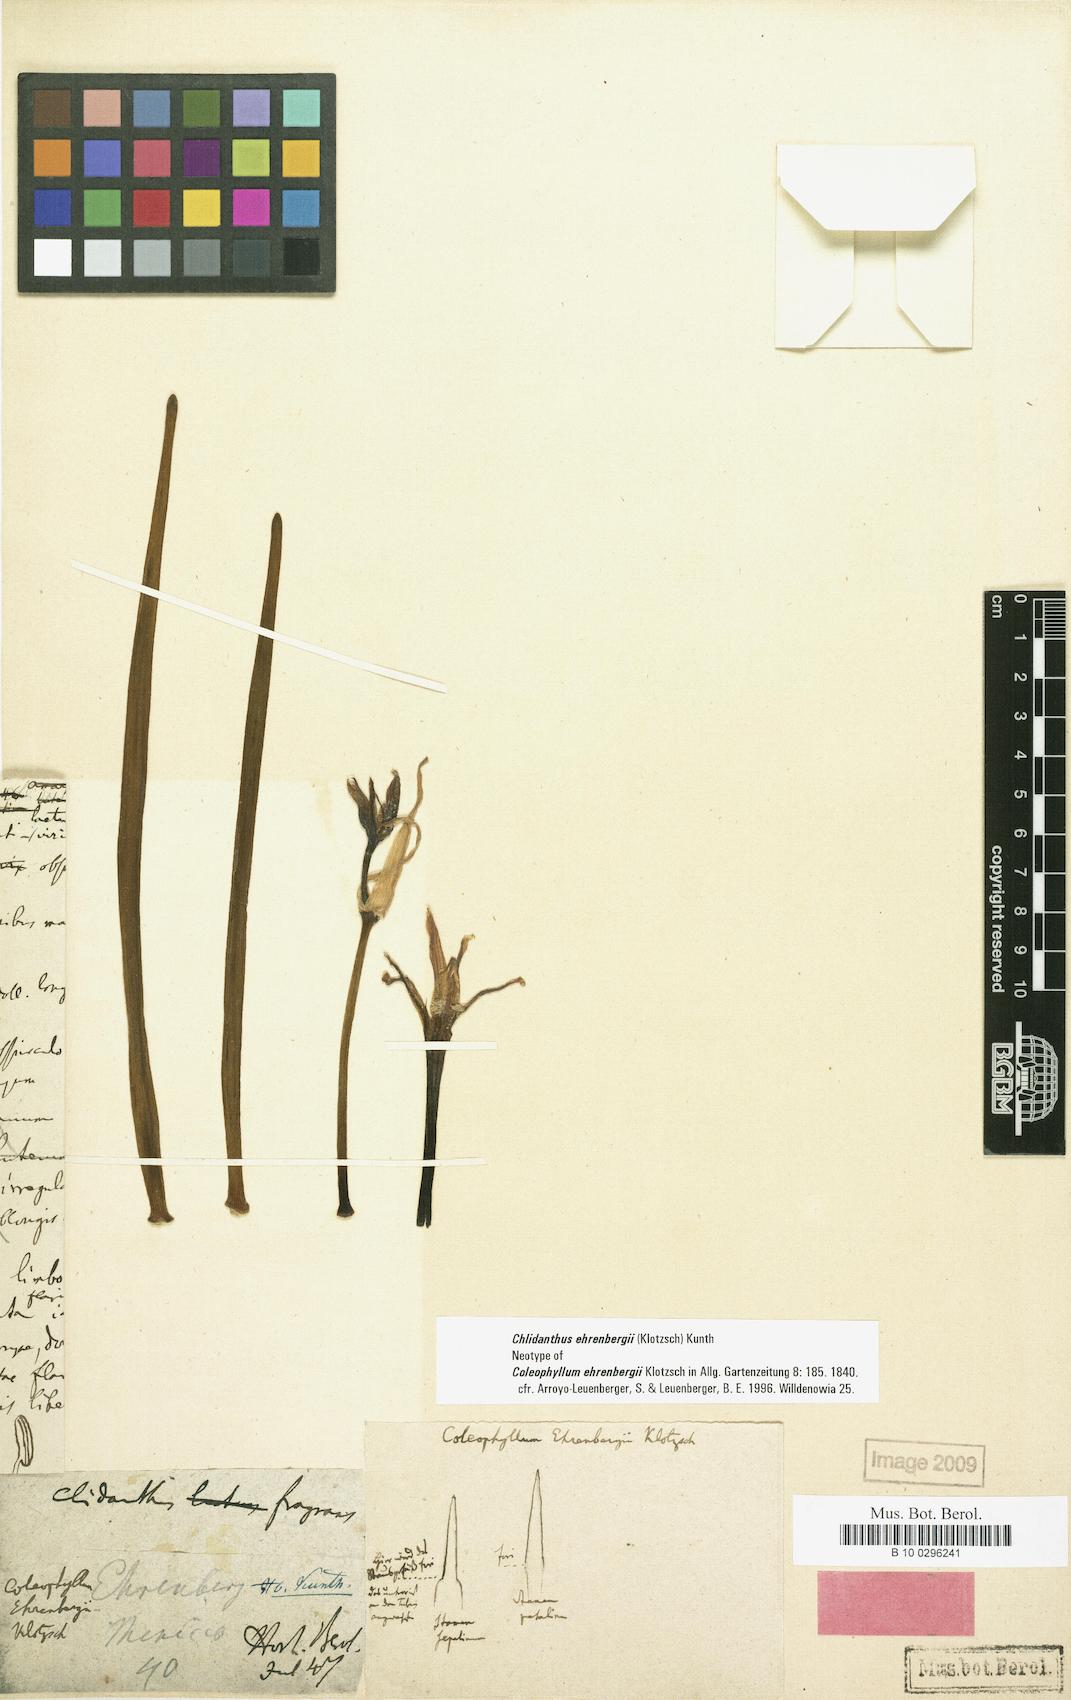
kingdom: Plantae
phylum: Tracheophyta
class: Liliopsida
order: Asparagales
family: Amaryllidaceae
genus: Chlidanthus
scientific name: Chlidanthus fragrans
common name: Perfumed fairy-lily
